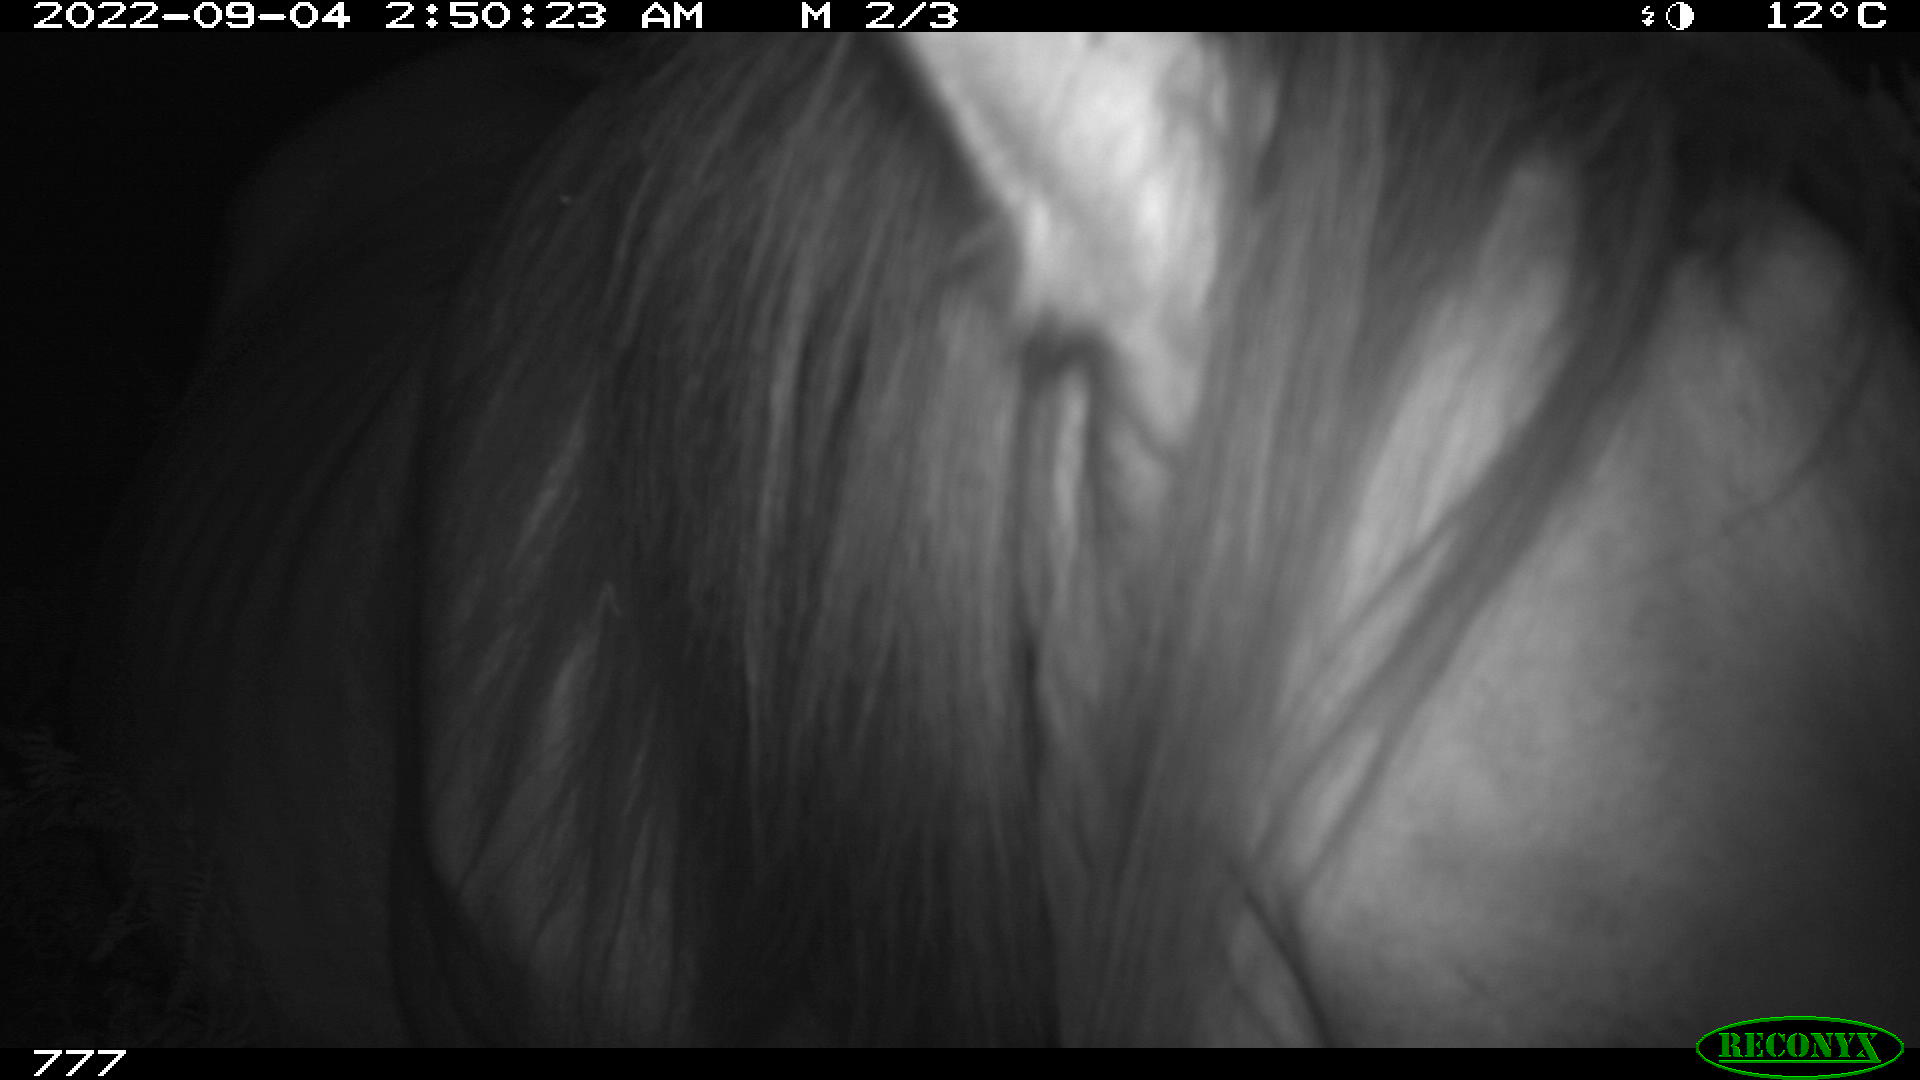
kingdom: Animalia
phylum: Chordata
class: Mammalia
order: Perissodactyla
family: Equidae
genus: Equus
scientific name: Equus caballus
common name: Horse
